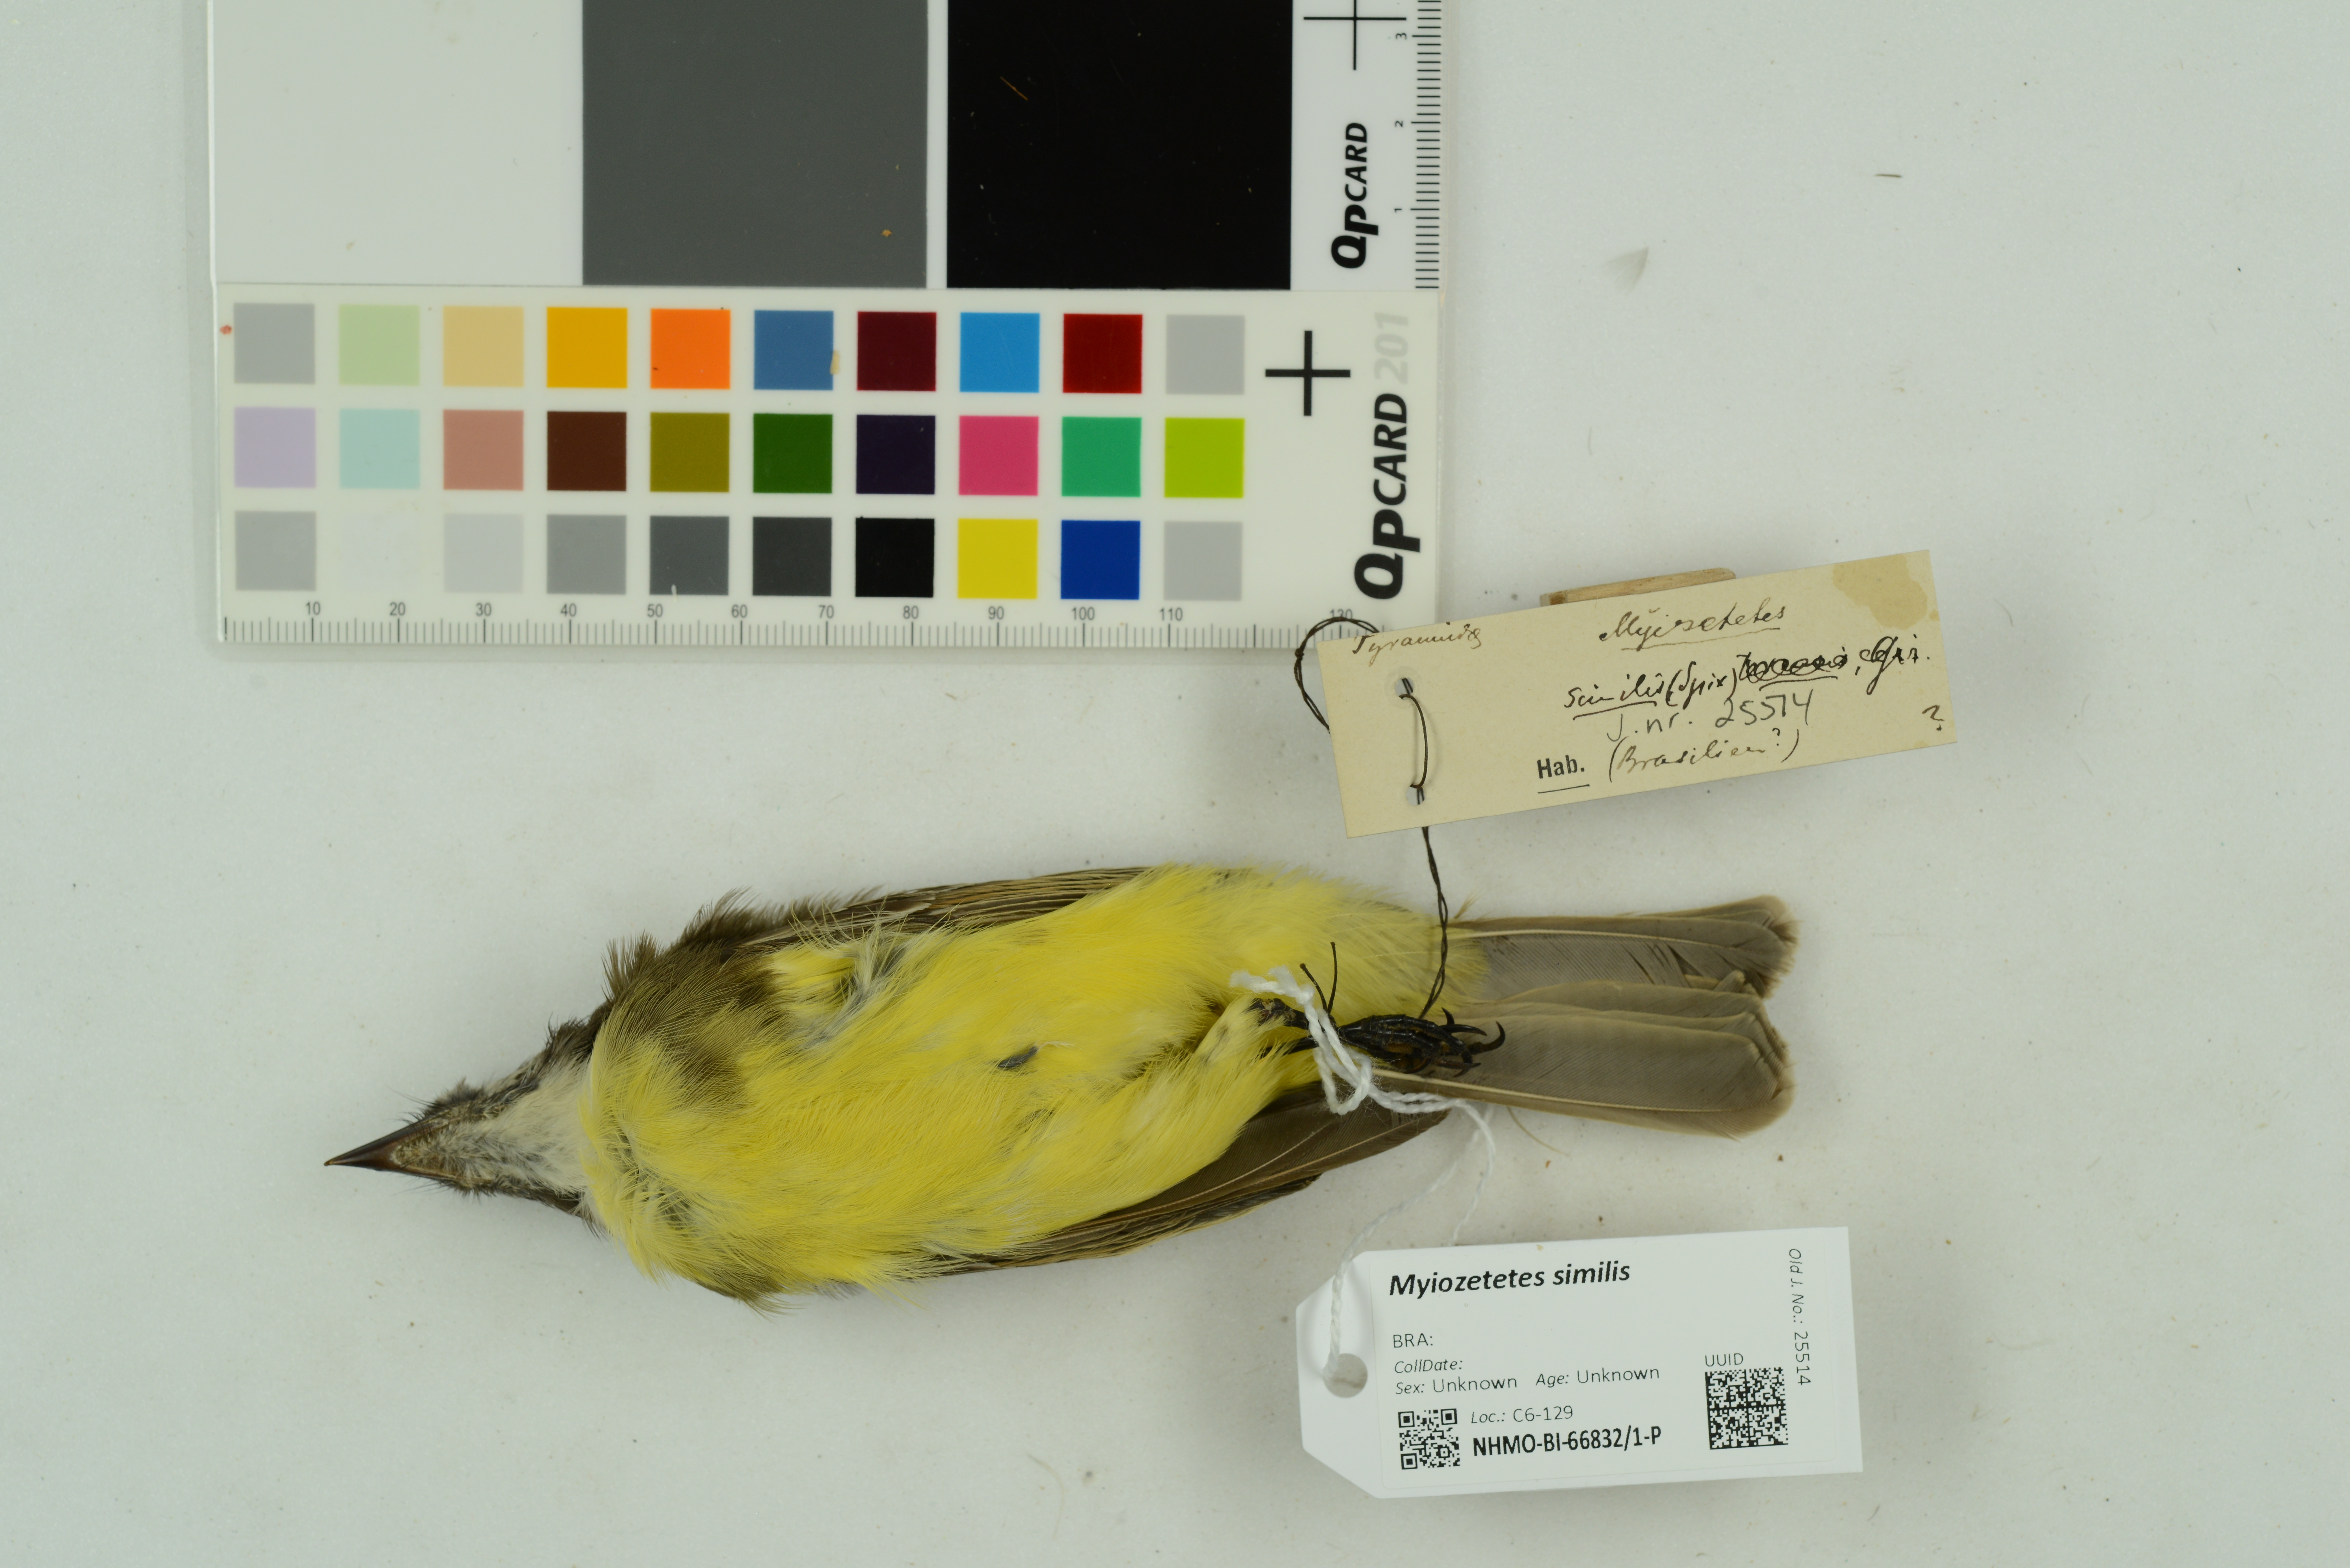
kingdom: Animalia
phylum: Chordata
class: Aves
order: Passeriformes
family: Tyrannidae
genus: Myiozetetes
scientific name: Myiozetetes similis
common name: Social flycatcher
